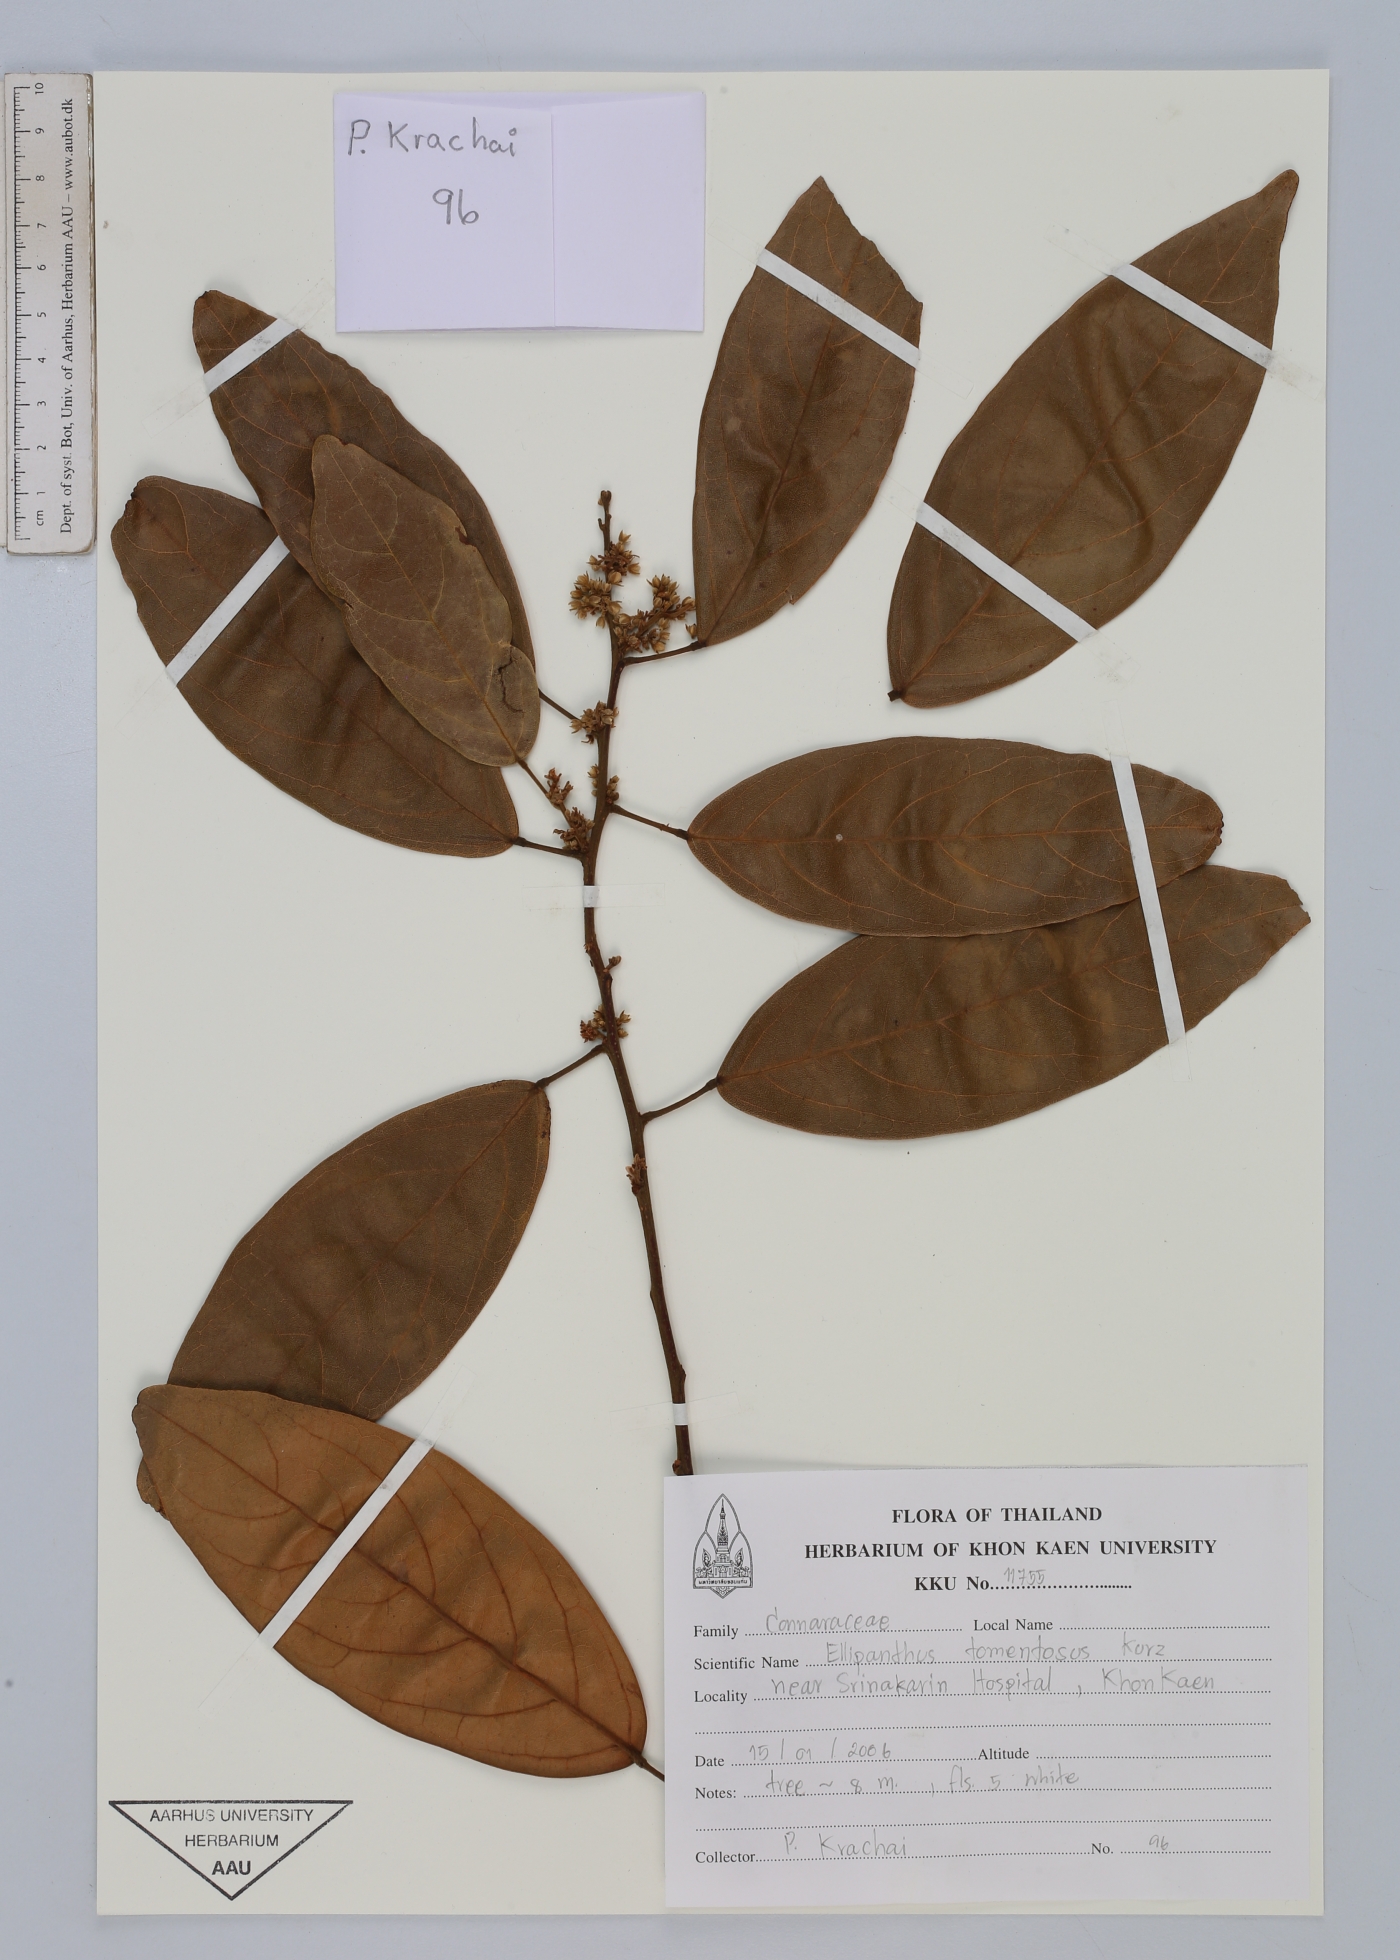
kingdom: Plantae
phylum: Tracheophyta
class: Magnoliopsida
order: Oxalidales
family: Connaraceae
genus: Ellipanthus
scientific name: Ellipanthus tomentosus
